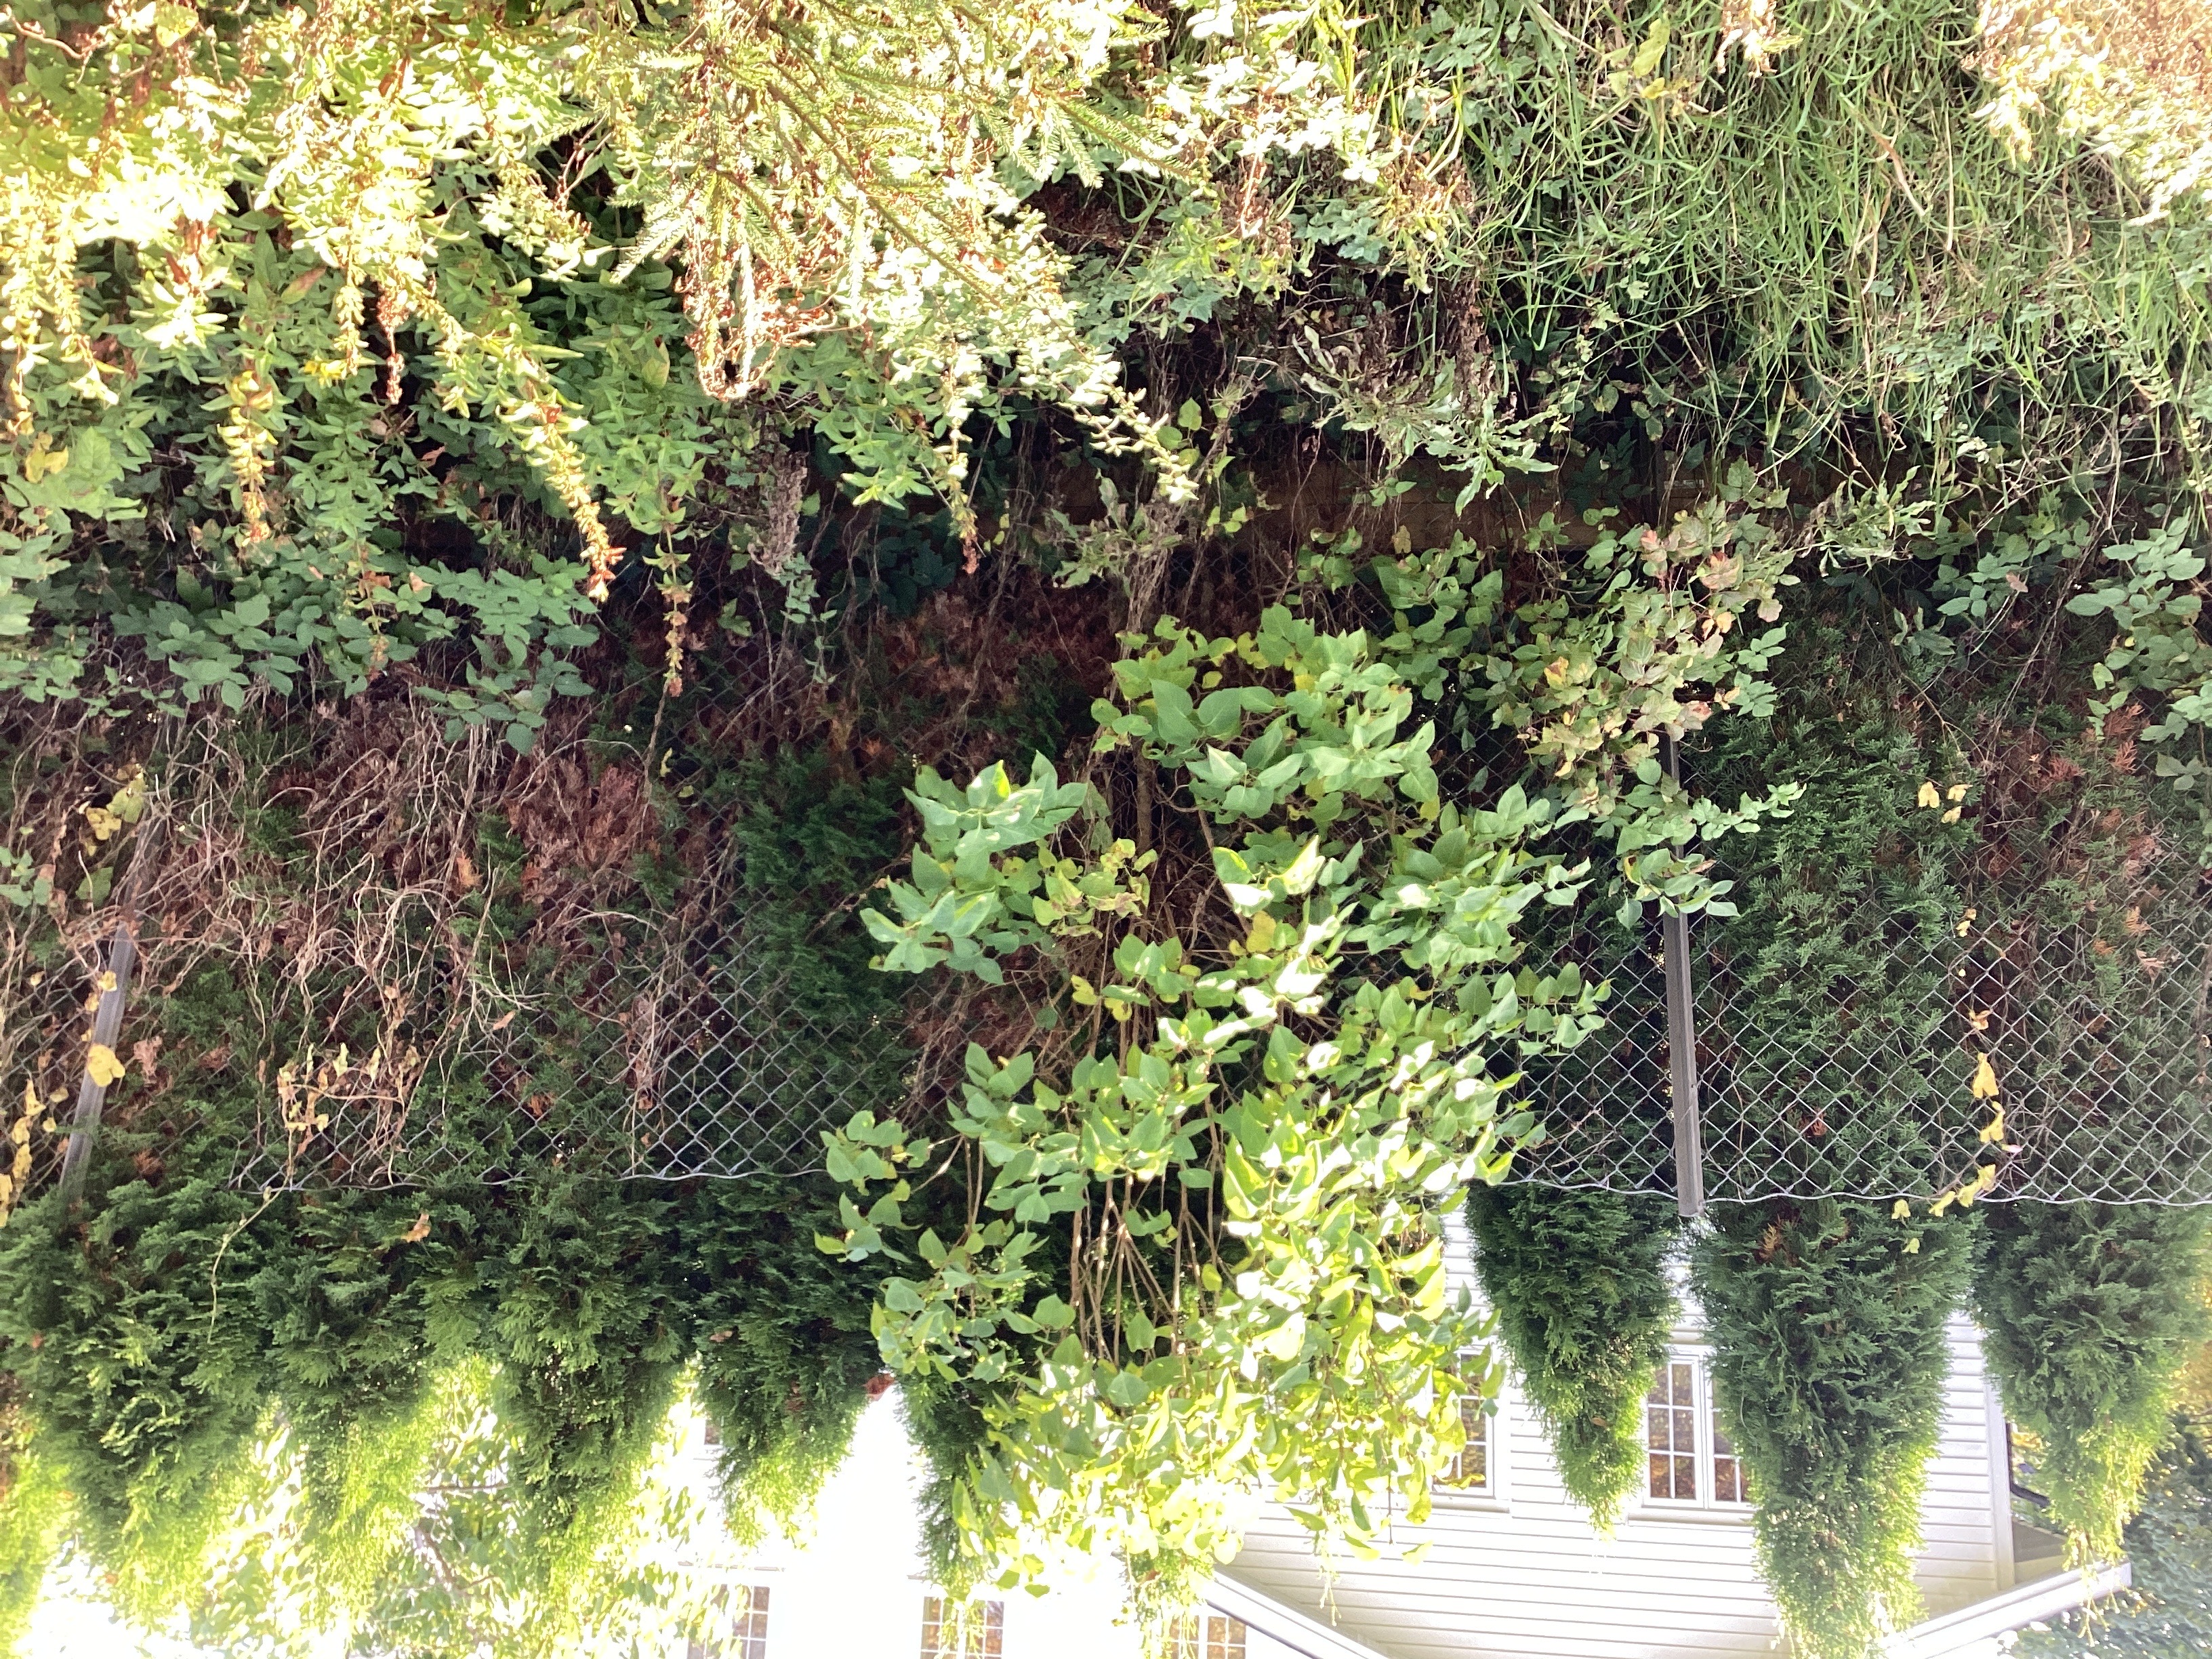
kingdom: Plantae
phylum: Tracheophyta
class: Magnoliopsida
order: Lamiales
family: Oleaceae
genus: Syringa
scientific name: Syringa vulgaris
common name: syrin
